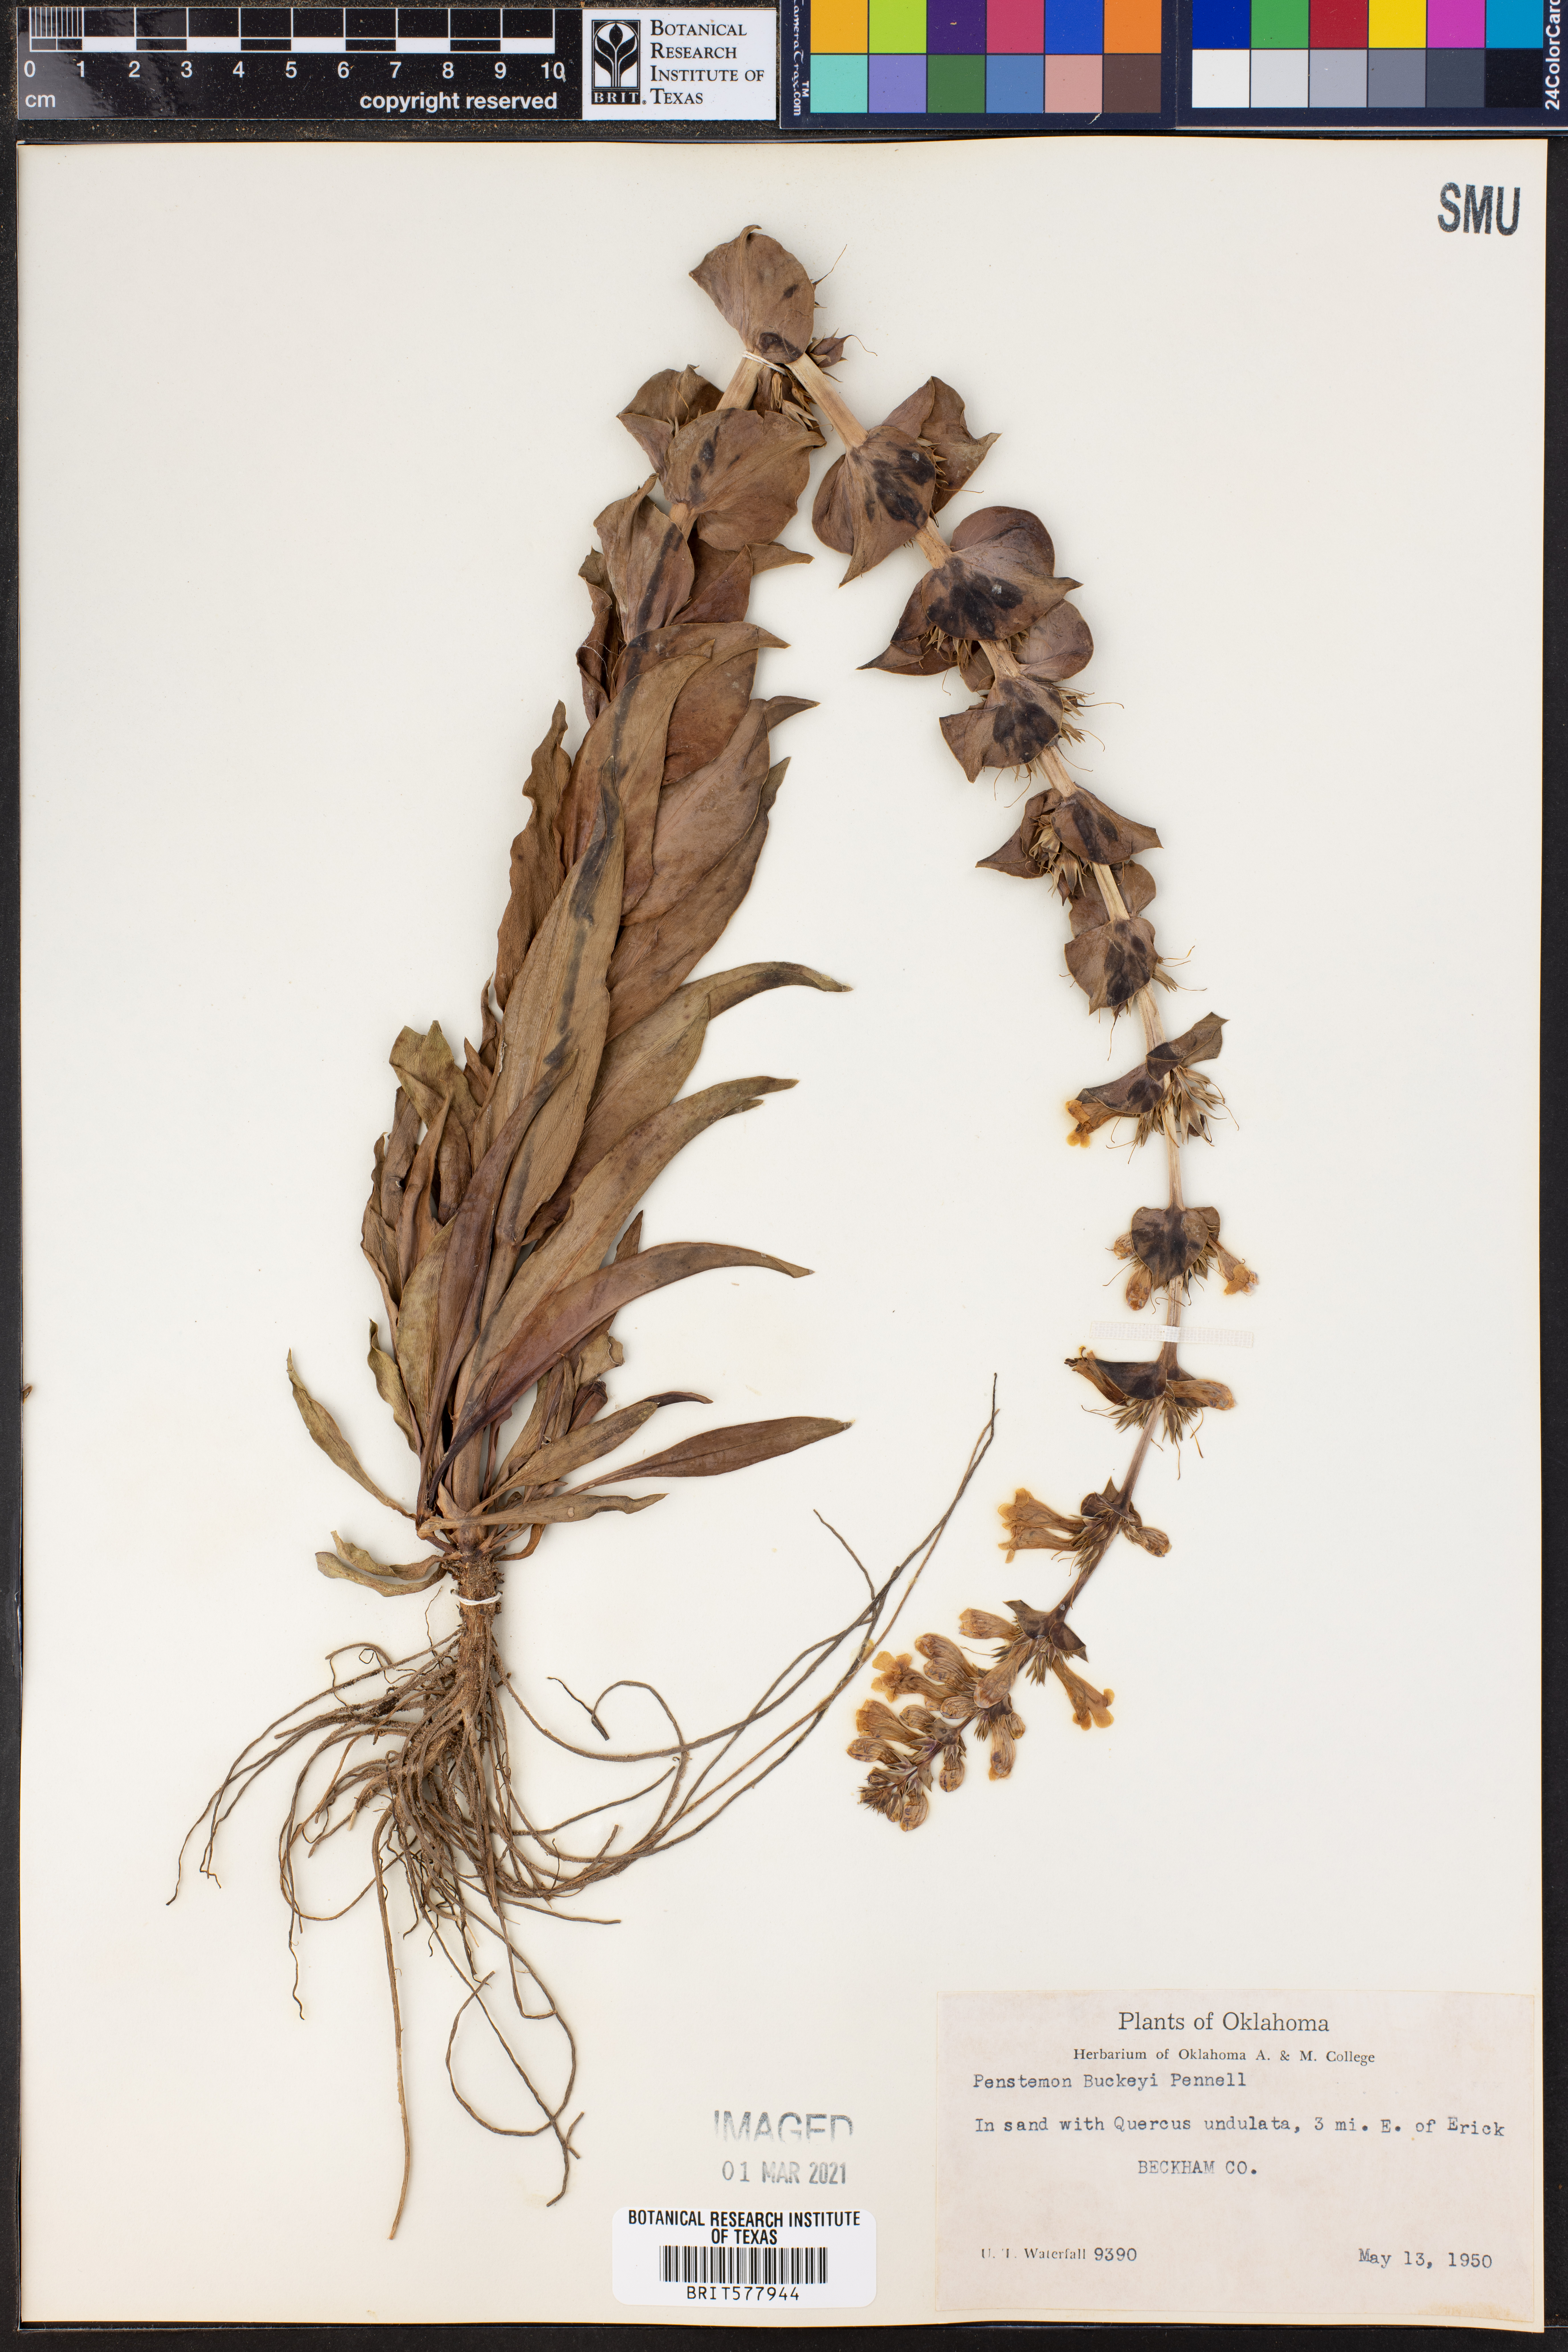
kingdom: Plantae
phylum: Tracheophyta
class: Magnoliopsida
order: Lamiales
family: Plantaginaceae
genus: Penstemon
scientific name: Penstemon buckleyi
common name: Buckley's penstemon
